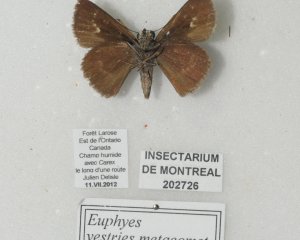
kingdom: Animalia
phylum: Arthropoda
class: Insecta
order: Lepidoptera
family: Hesperiidae
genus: Euphyes
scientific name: Euphyes vestris
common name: Dun Skipper
